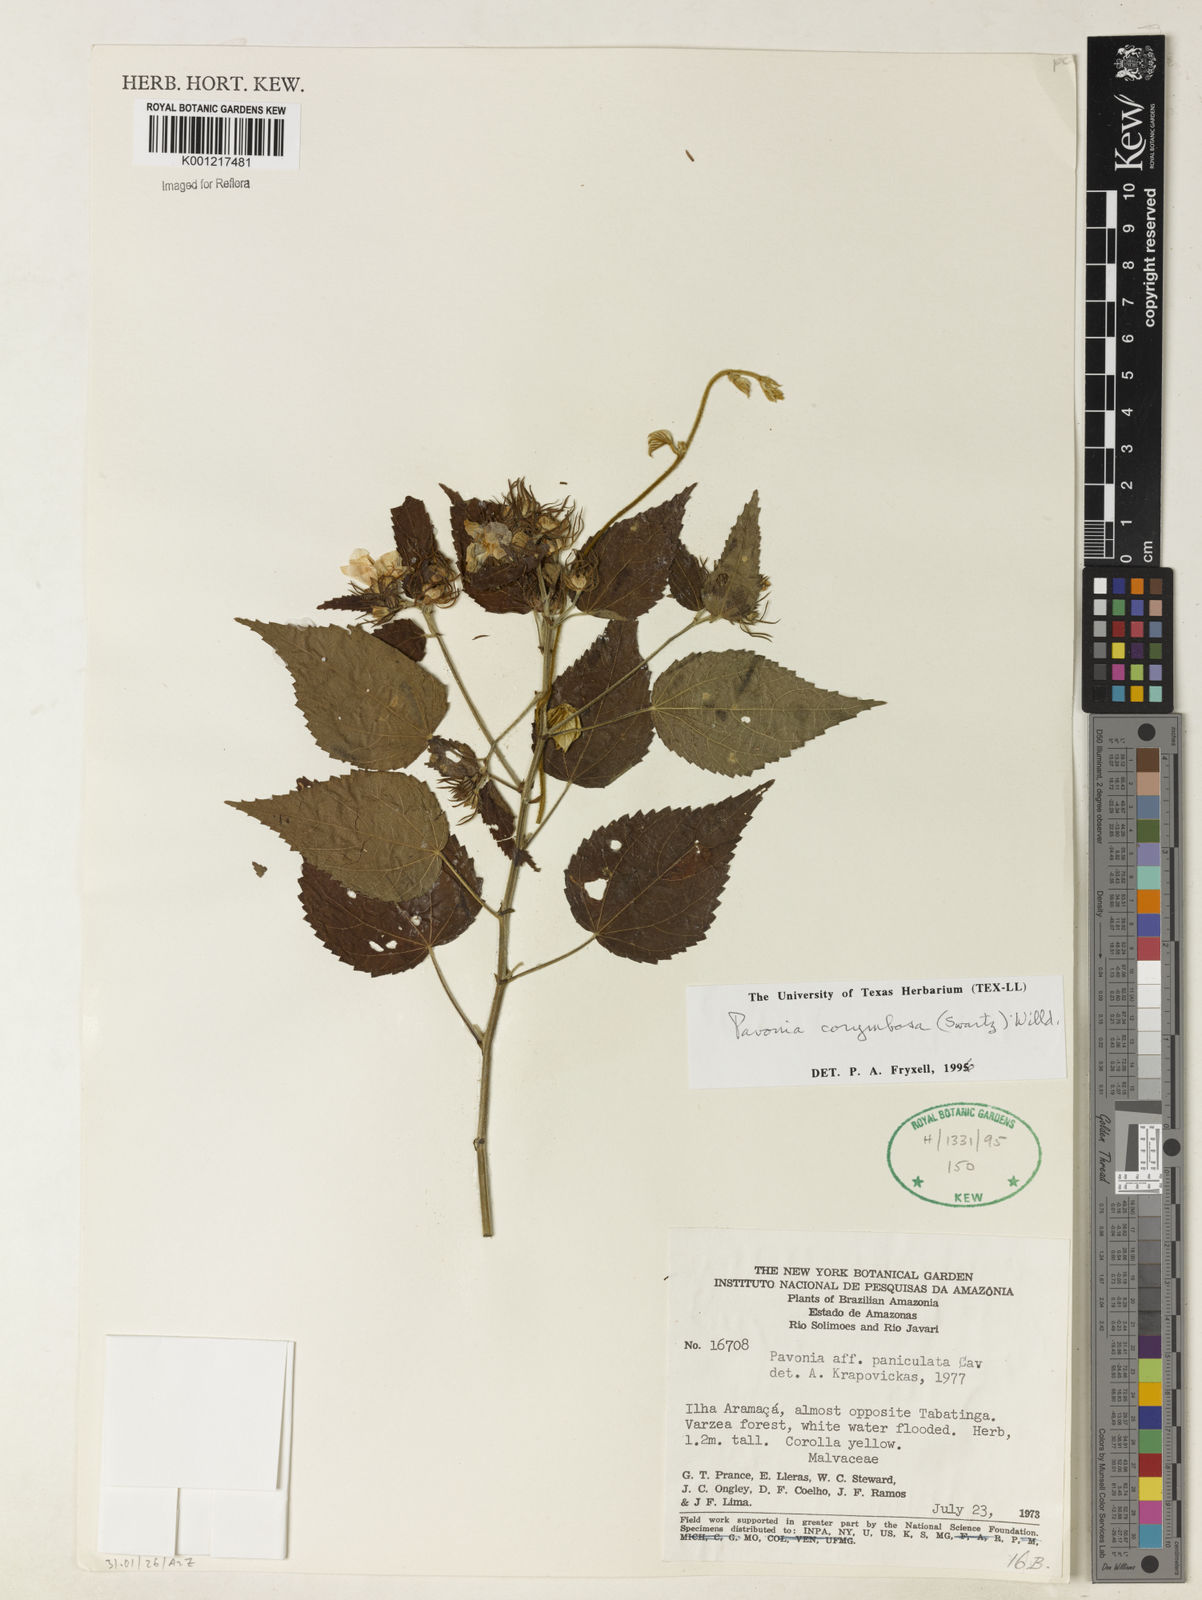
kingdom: Plantae
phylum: Tracheophyta
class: Magnoliopsida
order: Malvales
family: Malvaceae
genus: Pavonia
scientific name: Pavonia corymbosa
